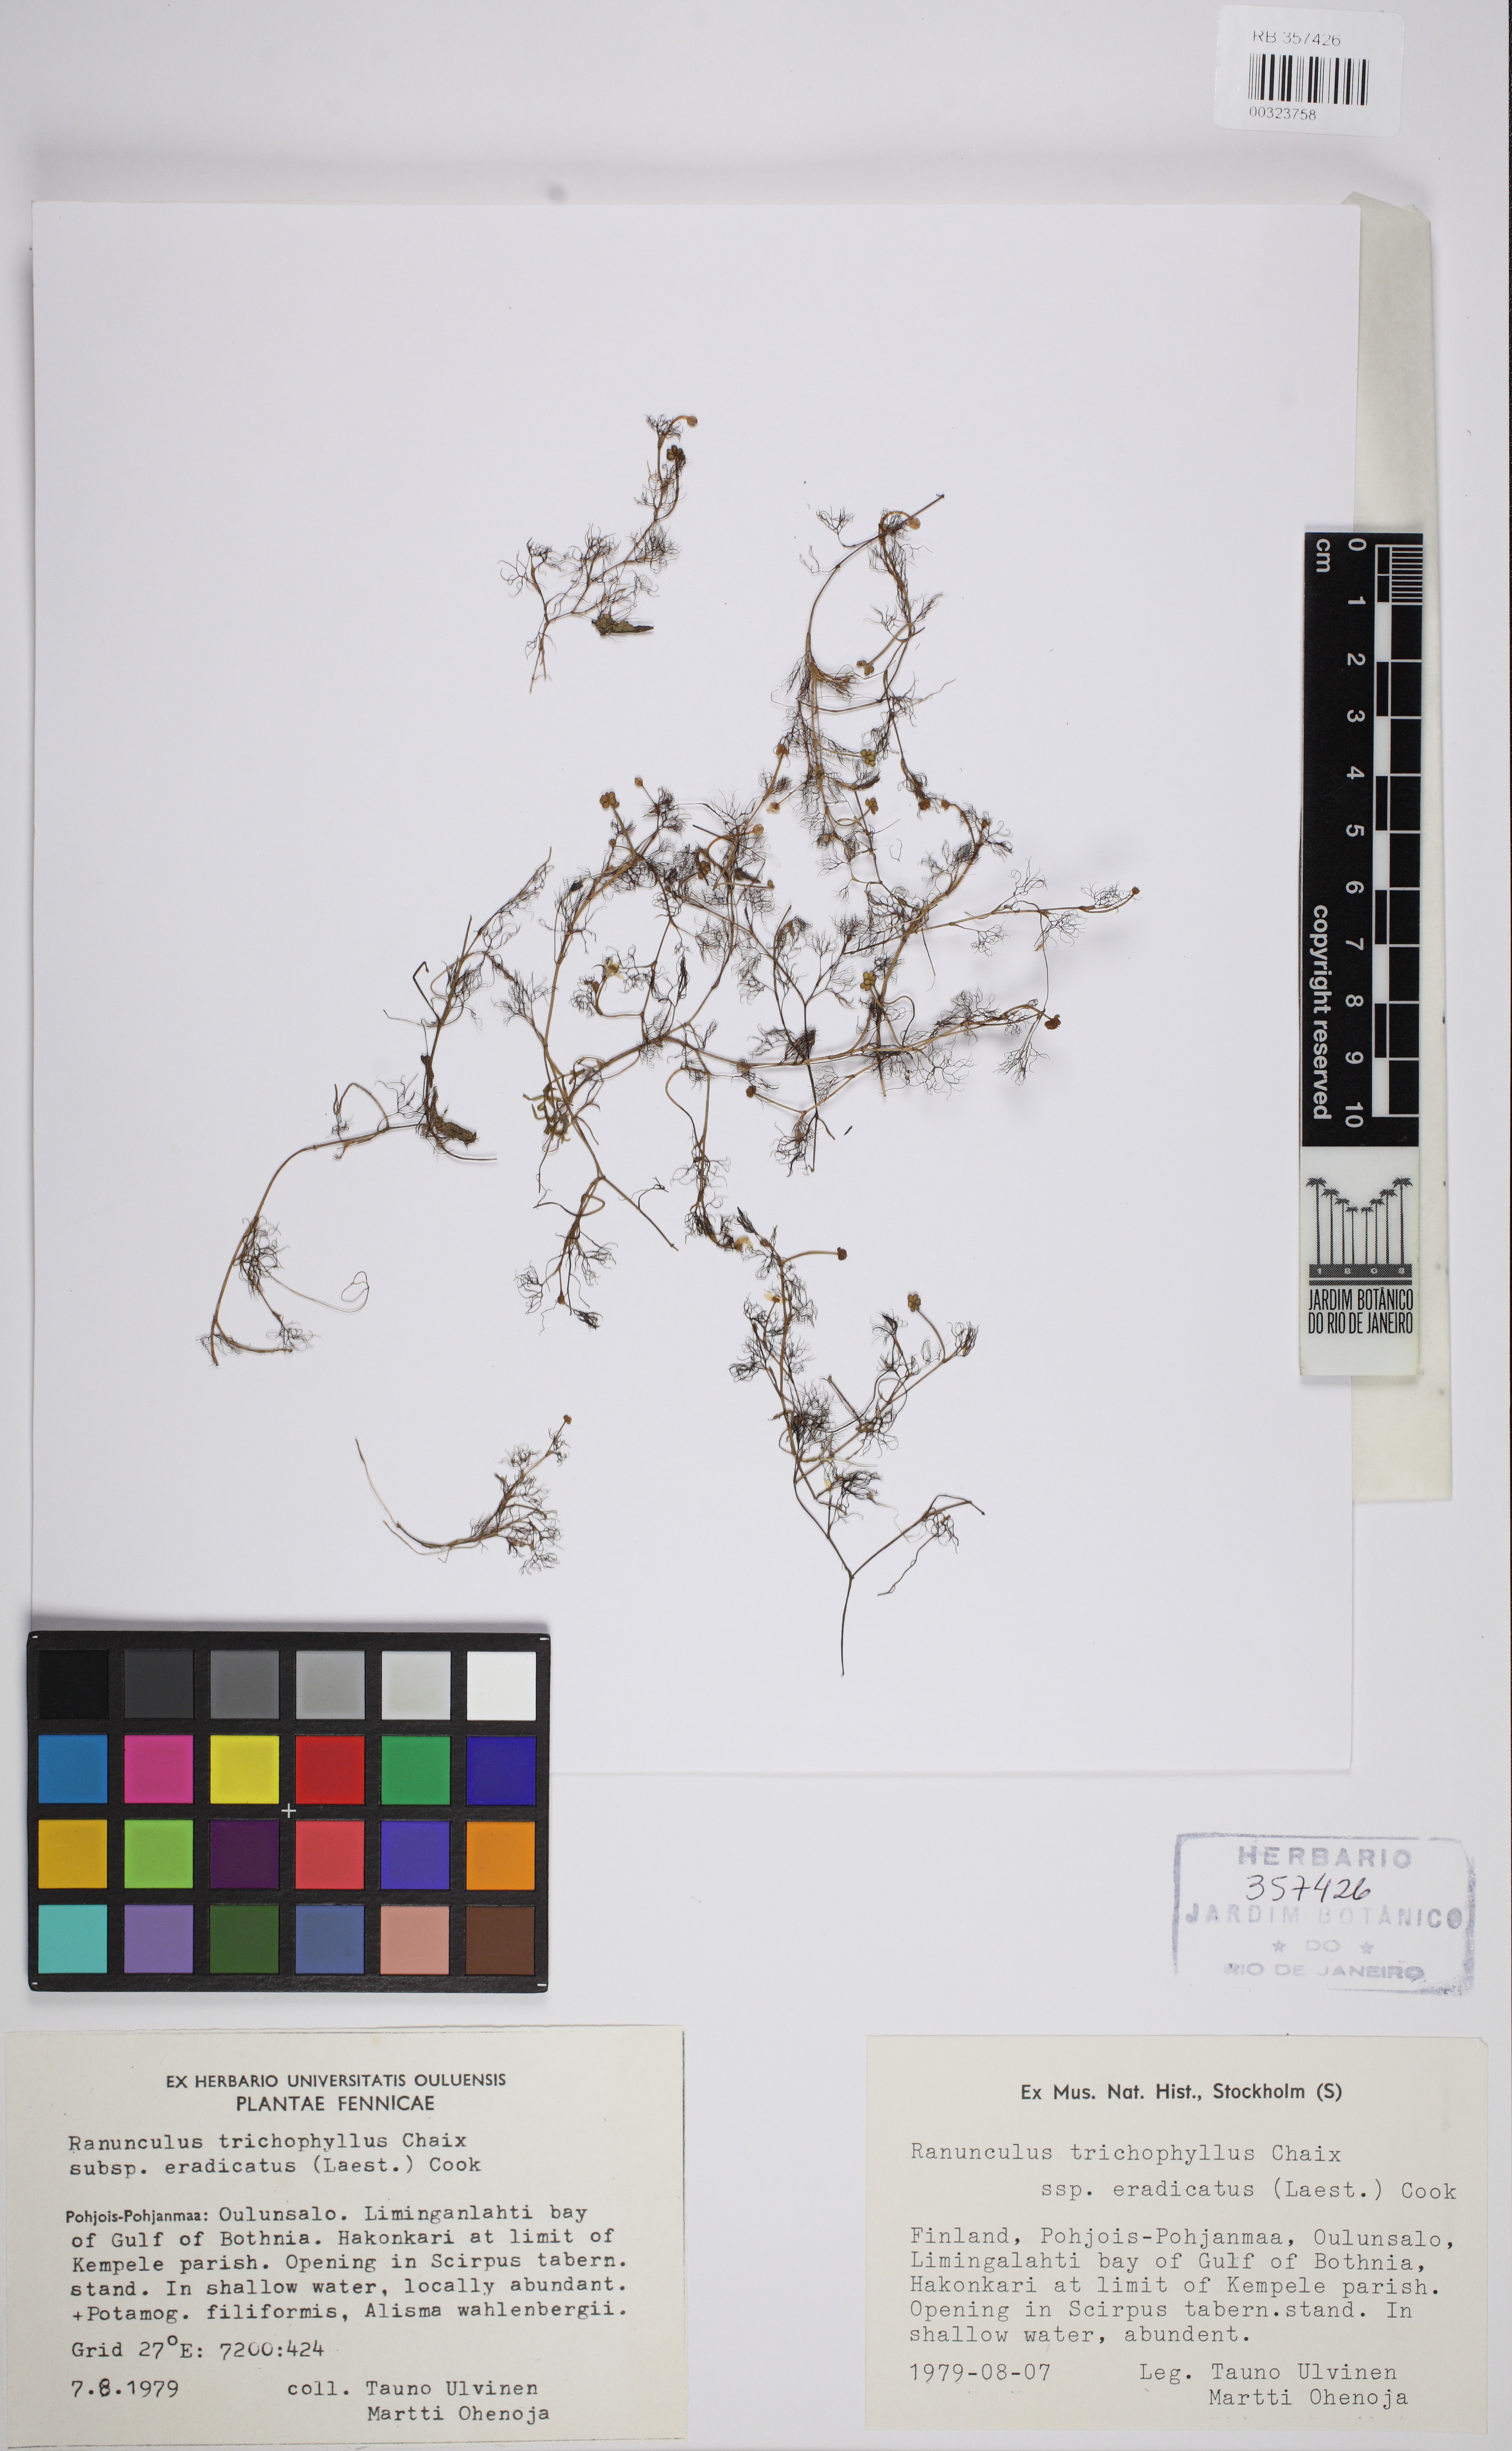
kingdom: Plantae
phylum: Tracheophyta
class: Magnoliopsida
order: Ranunculales
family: Ranunculaceae
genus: Ranunculus
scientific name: Ranunculus confervoides
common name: Delicate buttercup
